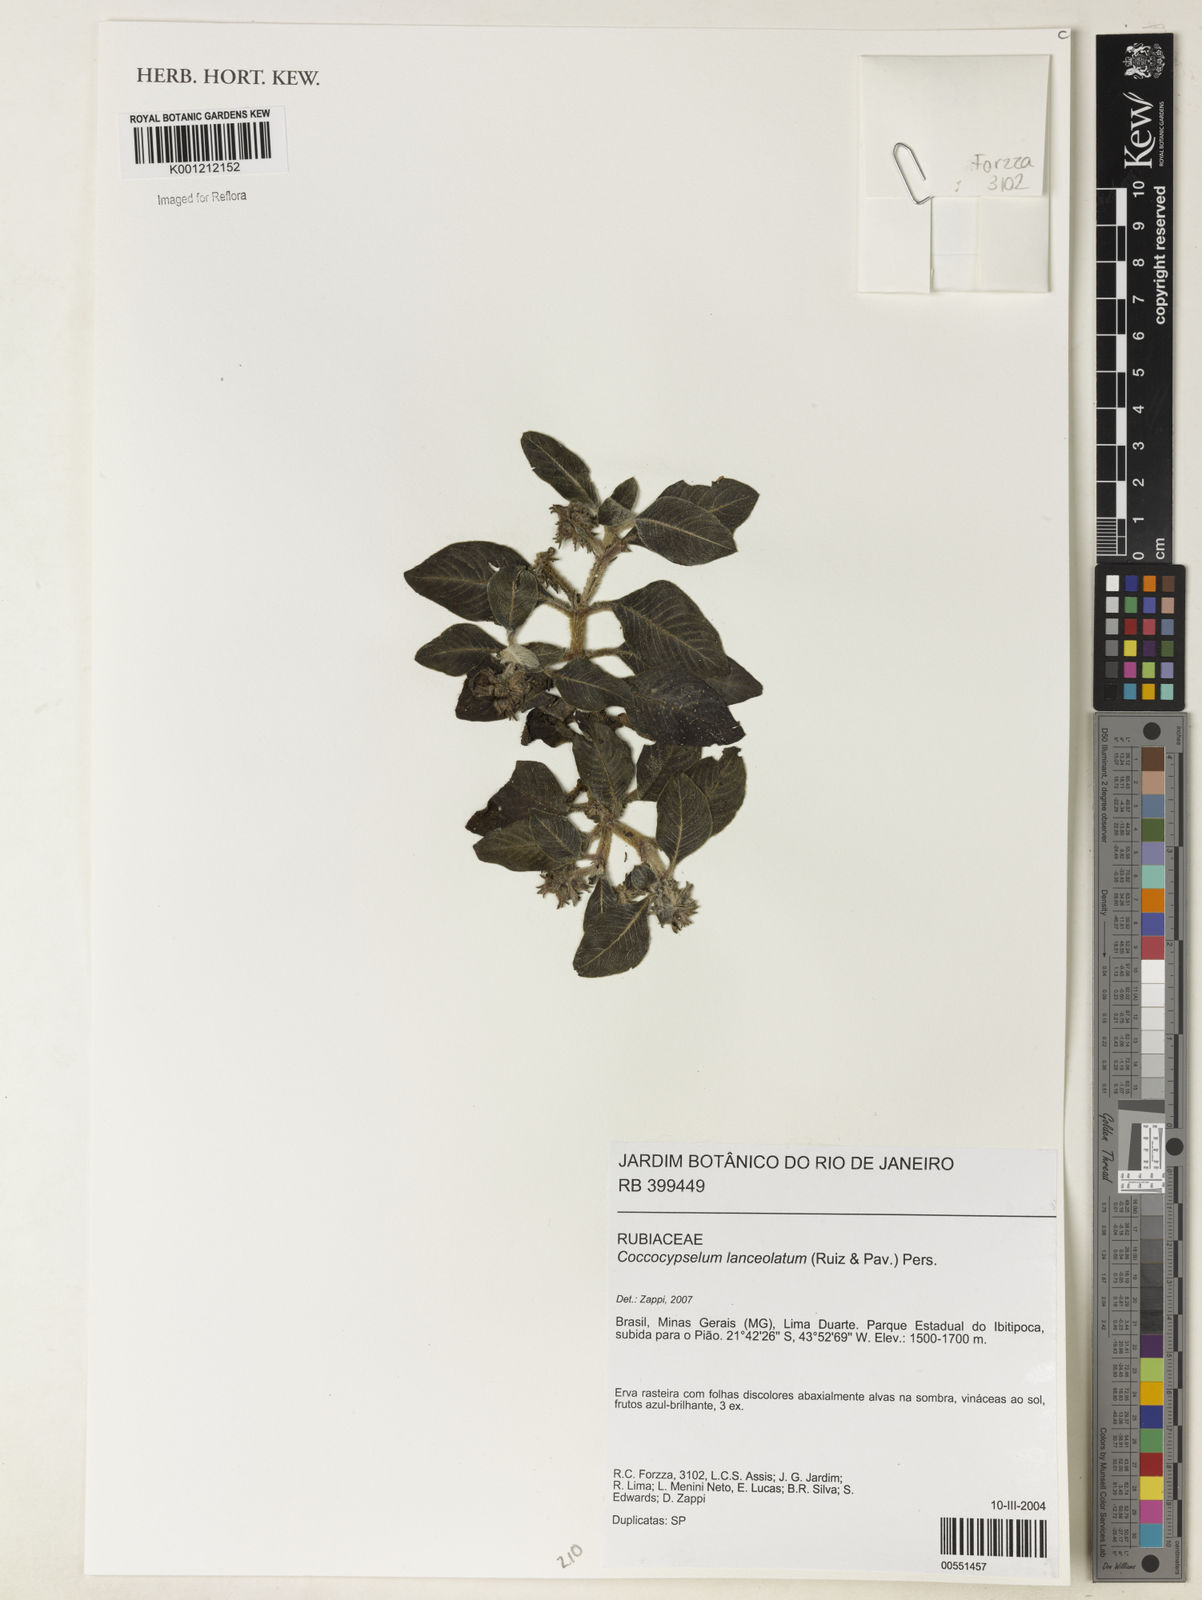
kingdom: Plantae
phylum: Tracheophyta
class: Magnoliopsida
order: Gentianales
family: Rubiaceae
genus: Coccocypselum
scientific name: Coccocypselum lanceolatum
